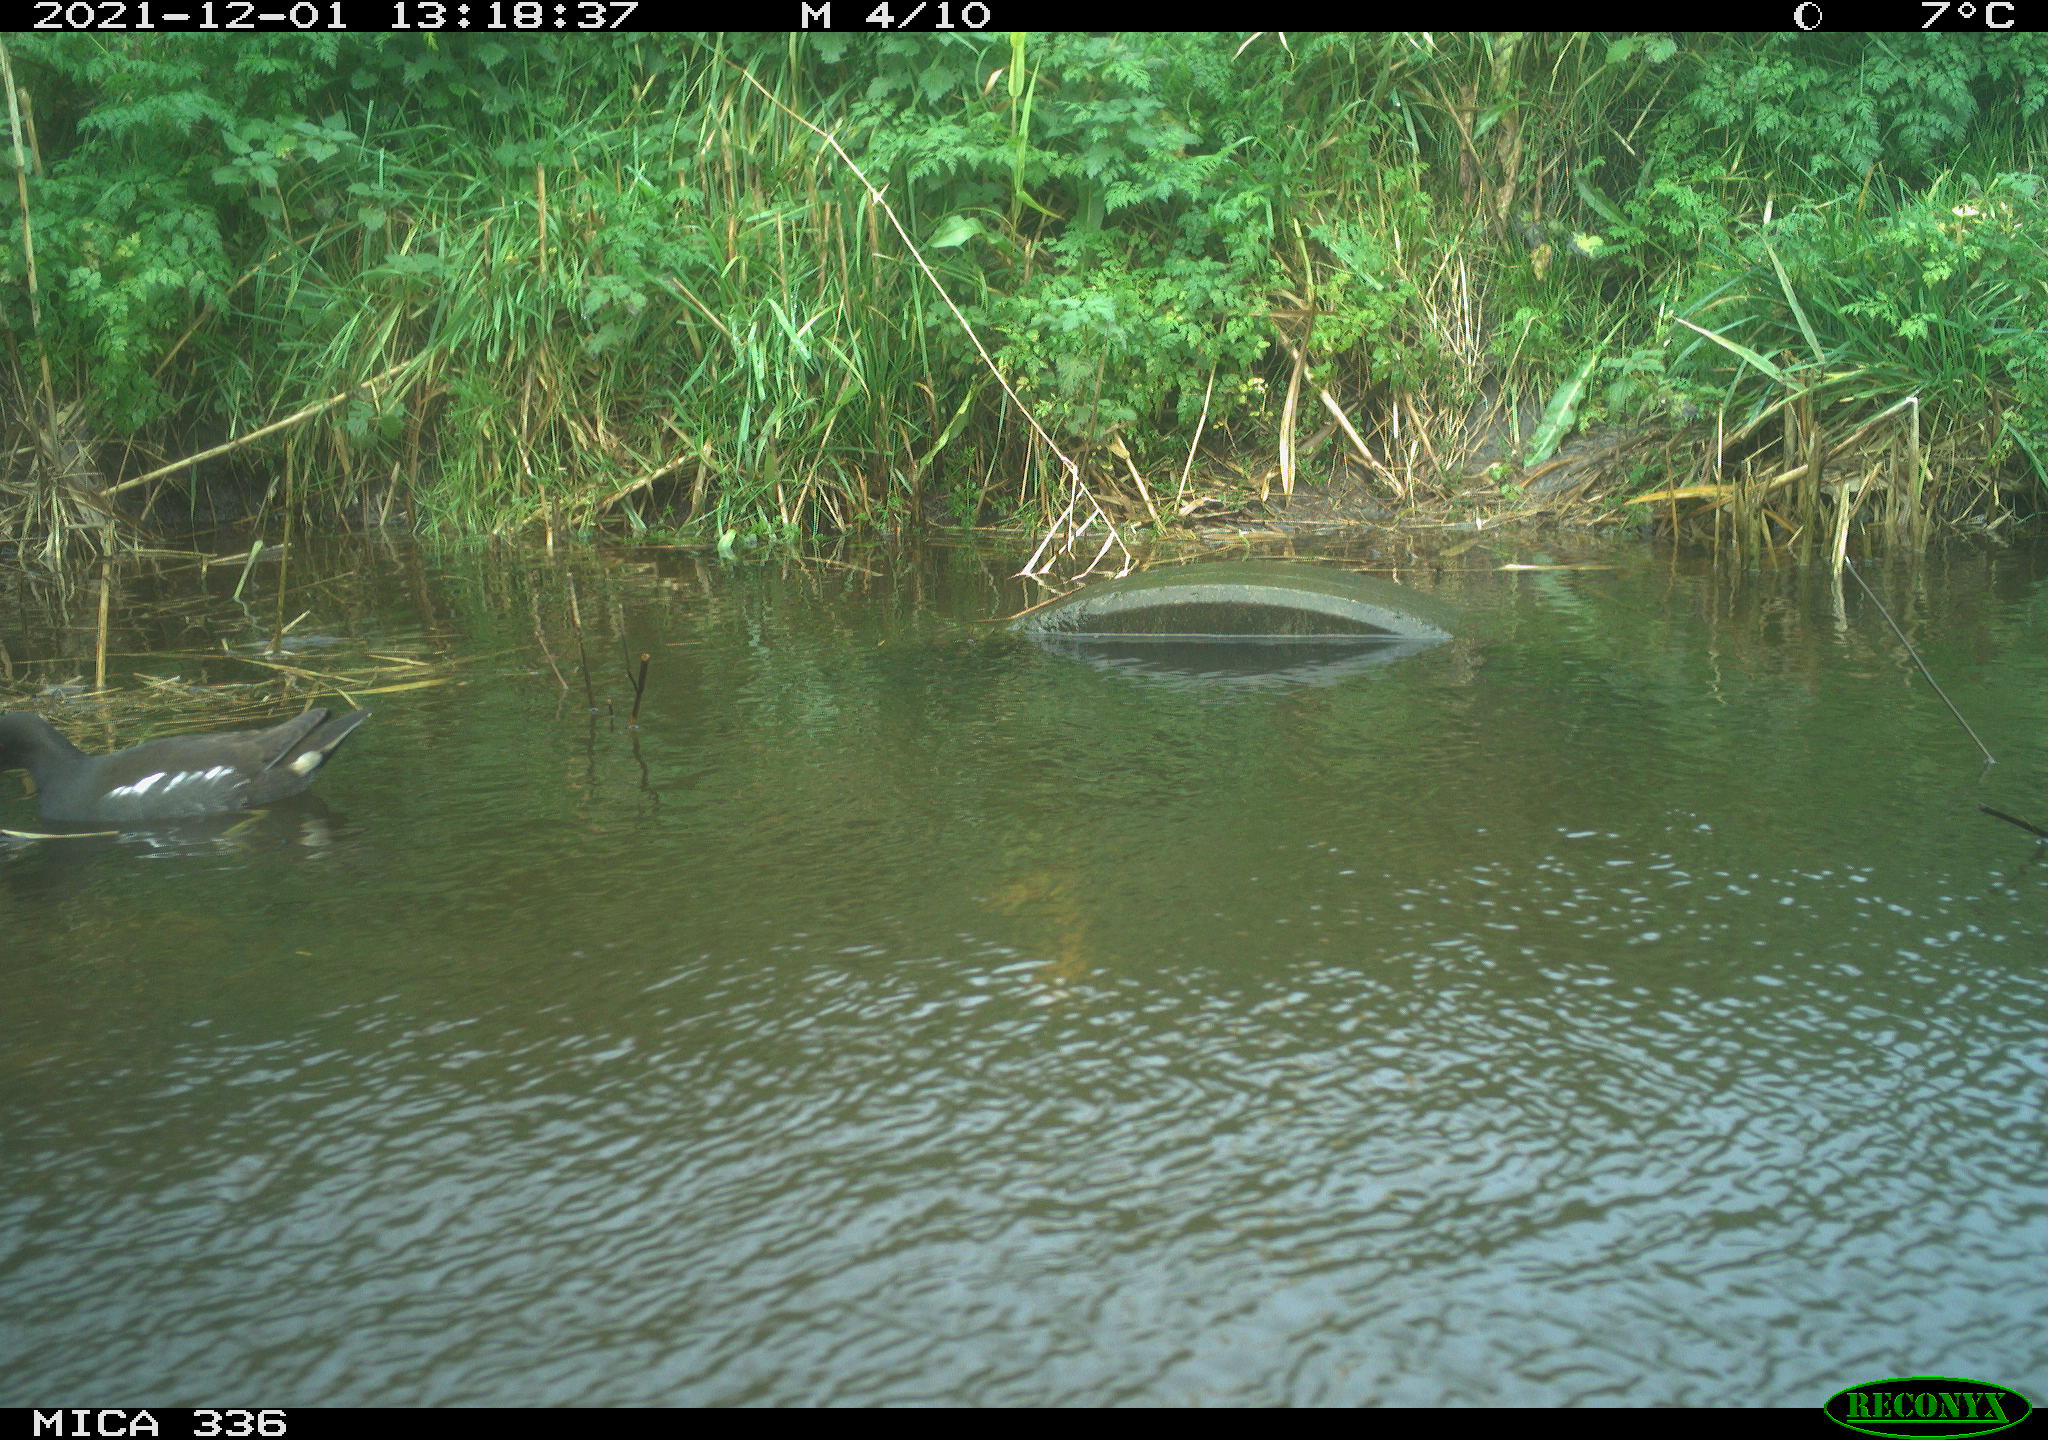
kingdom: Animalia
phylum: Chordata
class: Aves
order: Gruiformes
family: Rallidae
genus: Gallinula
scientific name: Gallinula chloropus
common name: Common moorhen
